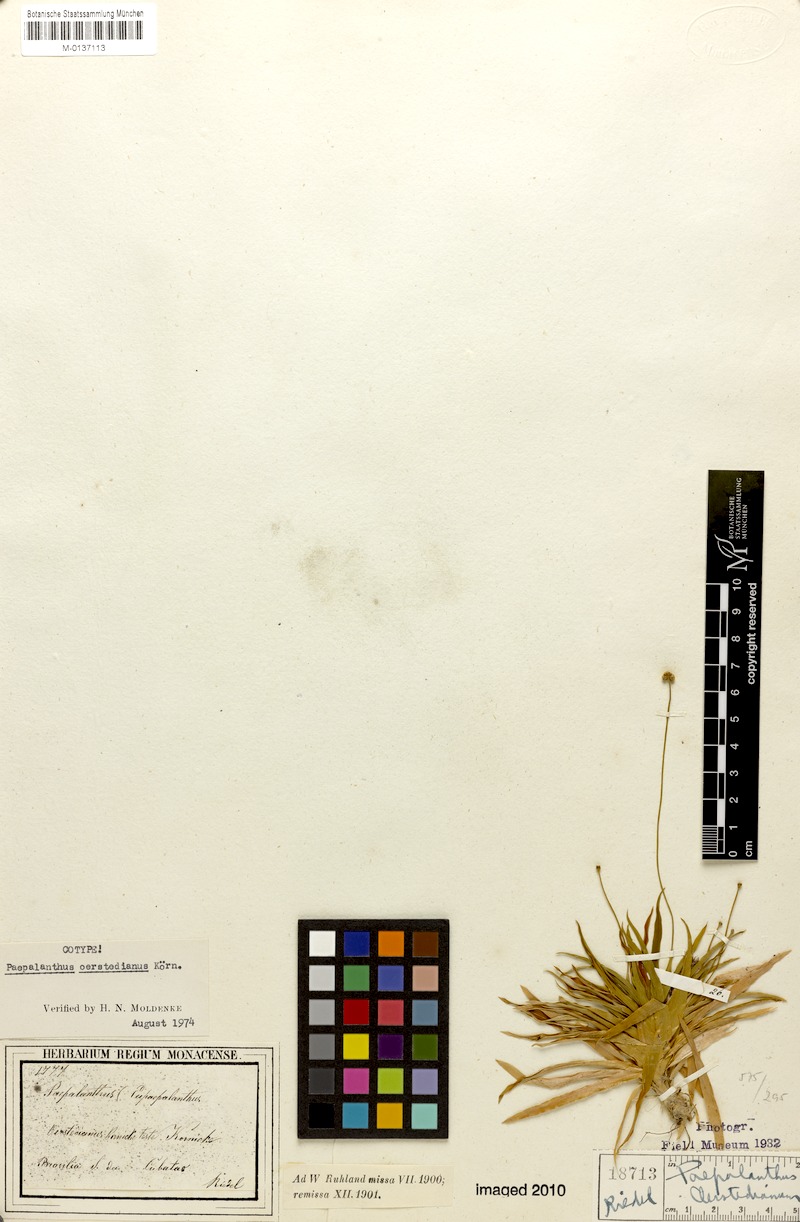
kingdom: Plantae
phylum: Tracheophyta
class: Liliopsida
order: Poales
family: Eriocaulaceae
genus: Paepalanthus
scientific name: Paepalanthus oerstedianus
